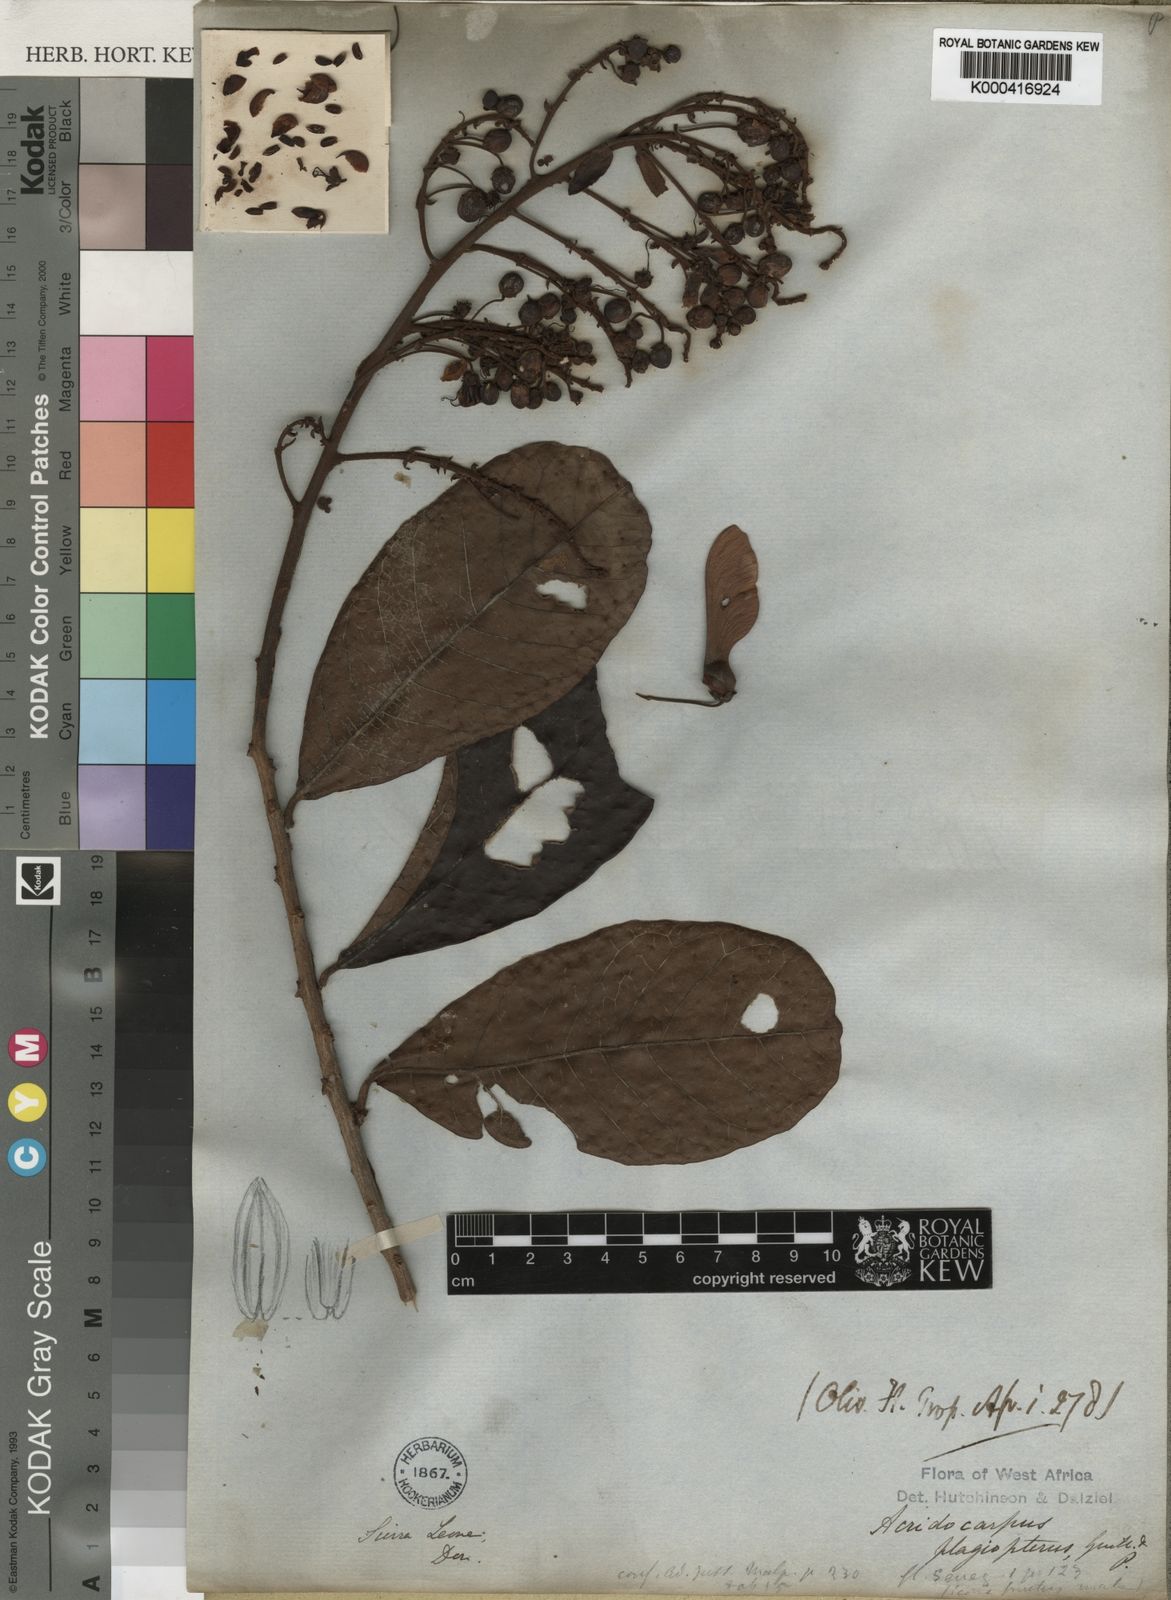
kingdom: Plantae
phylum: Tracheophyta
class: Magnoliopsida
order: Malpighiales
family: Malpighiaceae
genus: Acridocarpus
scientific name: Acridocarpus plagiopterus
